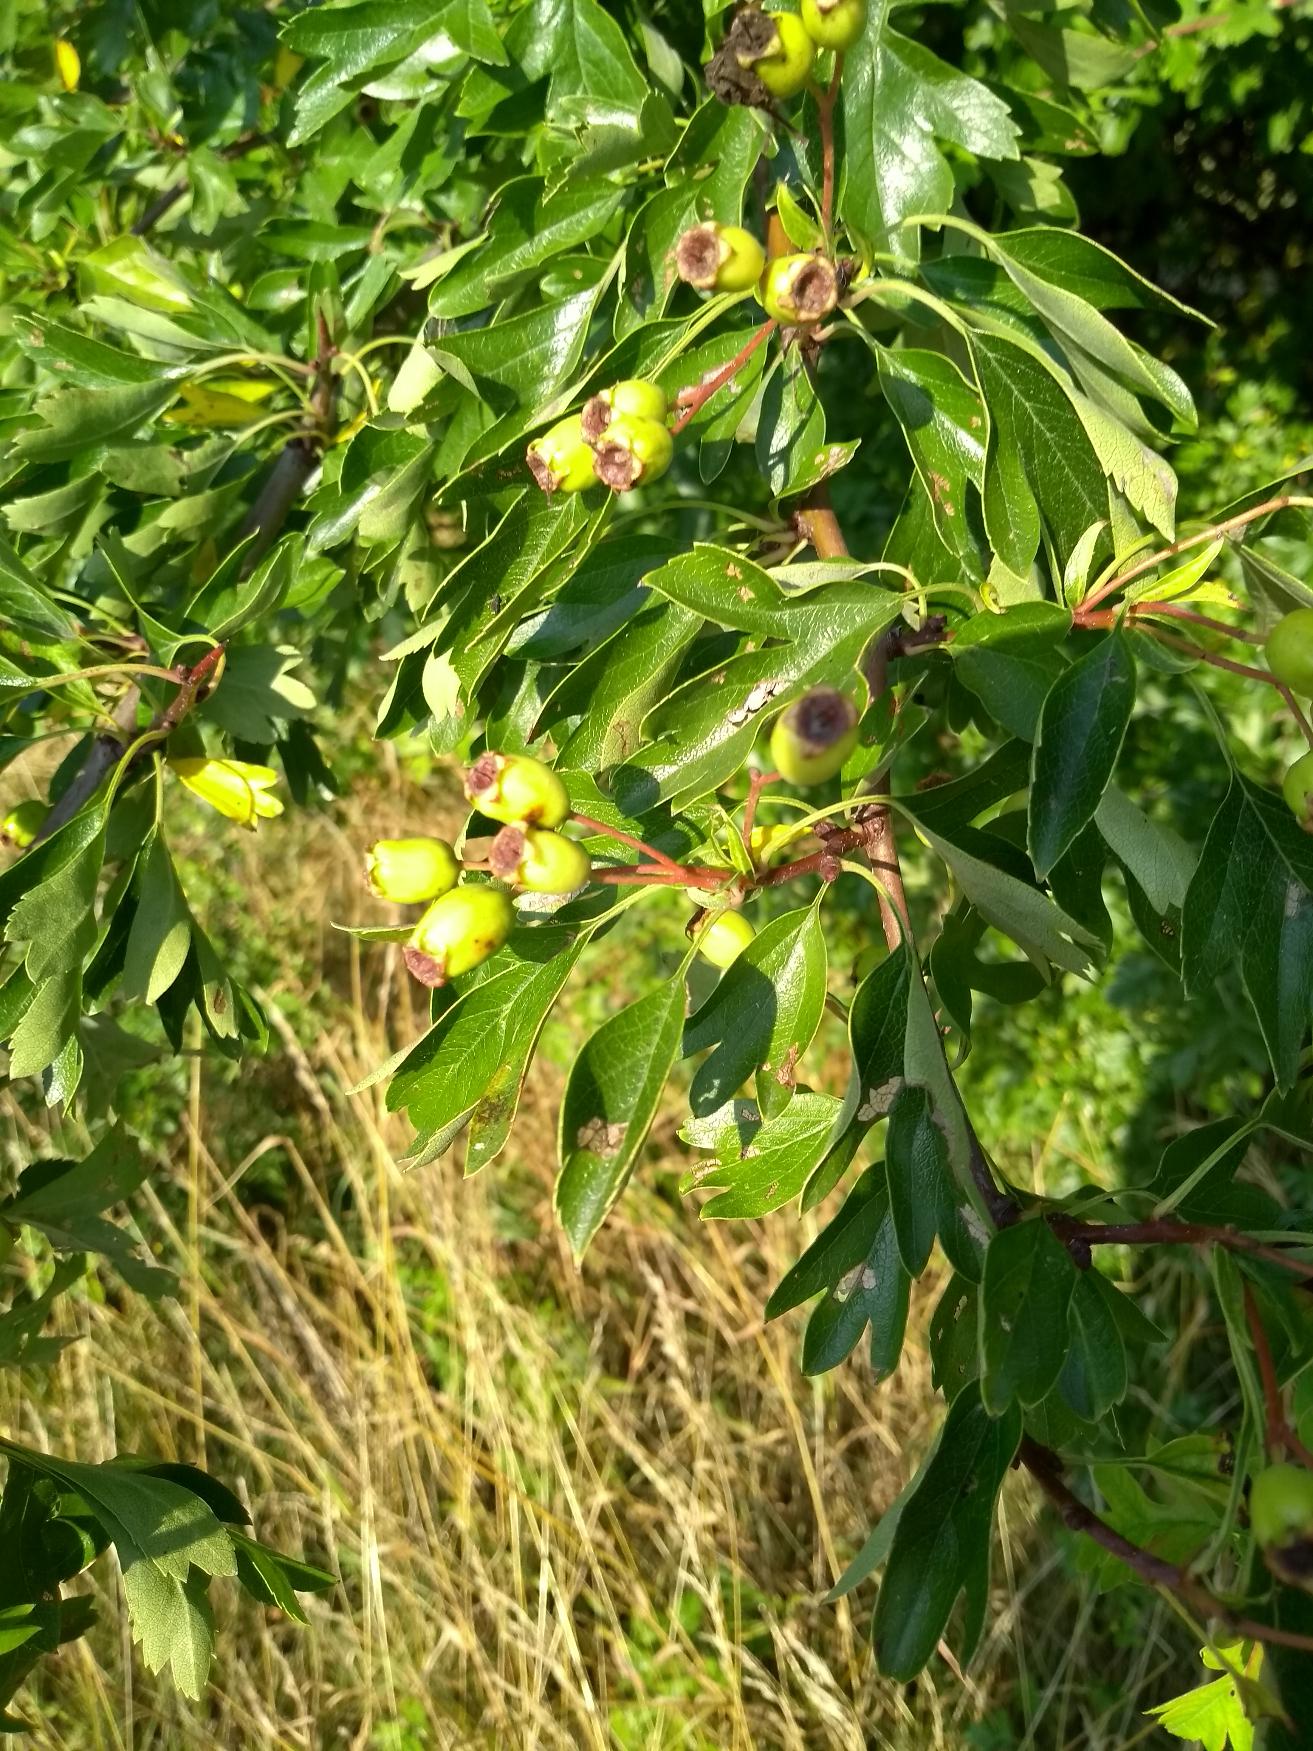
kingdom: Plantae
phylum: Tracheophyta
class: Magnoliopsida
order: Rosales
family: Rosaceae
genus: Crataegus
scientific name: Crataegus monogyna
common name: Engriflet hvidtjørn
